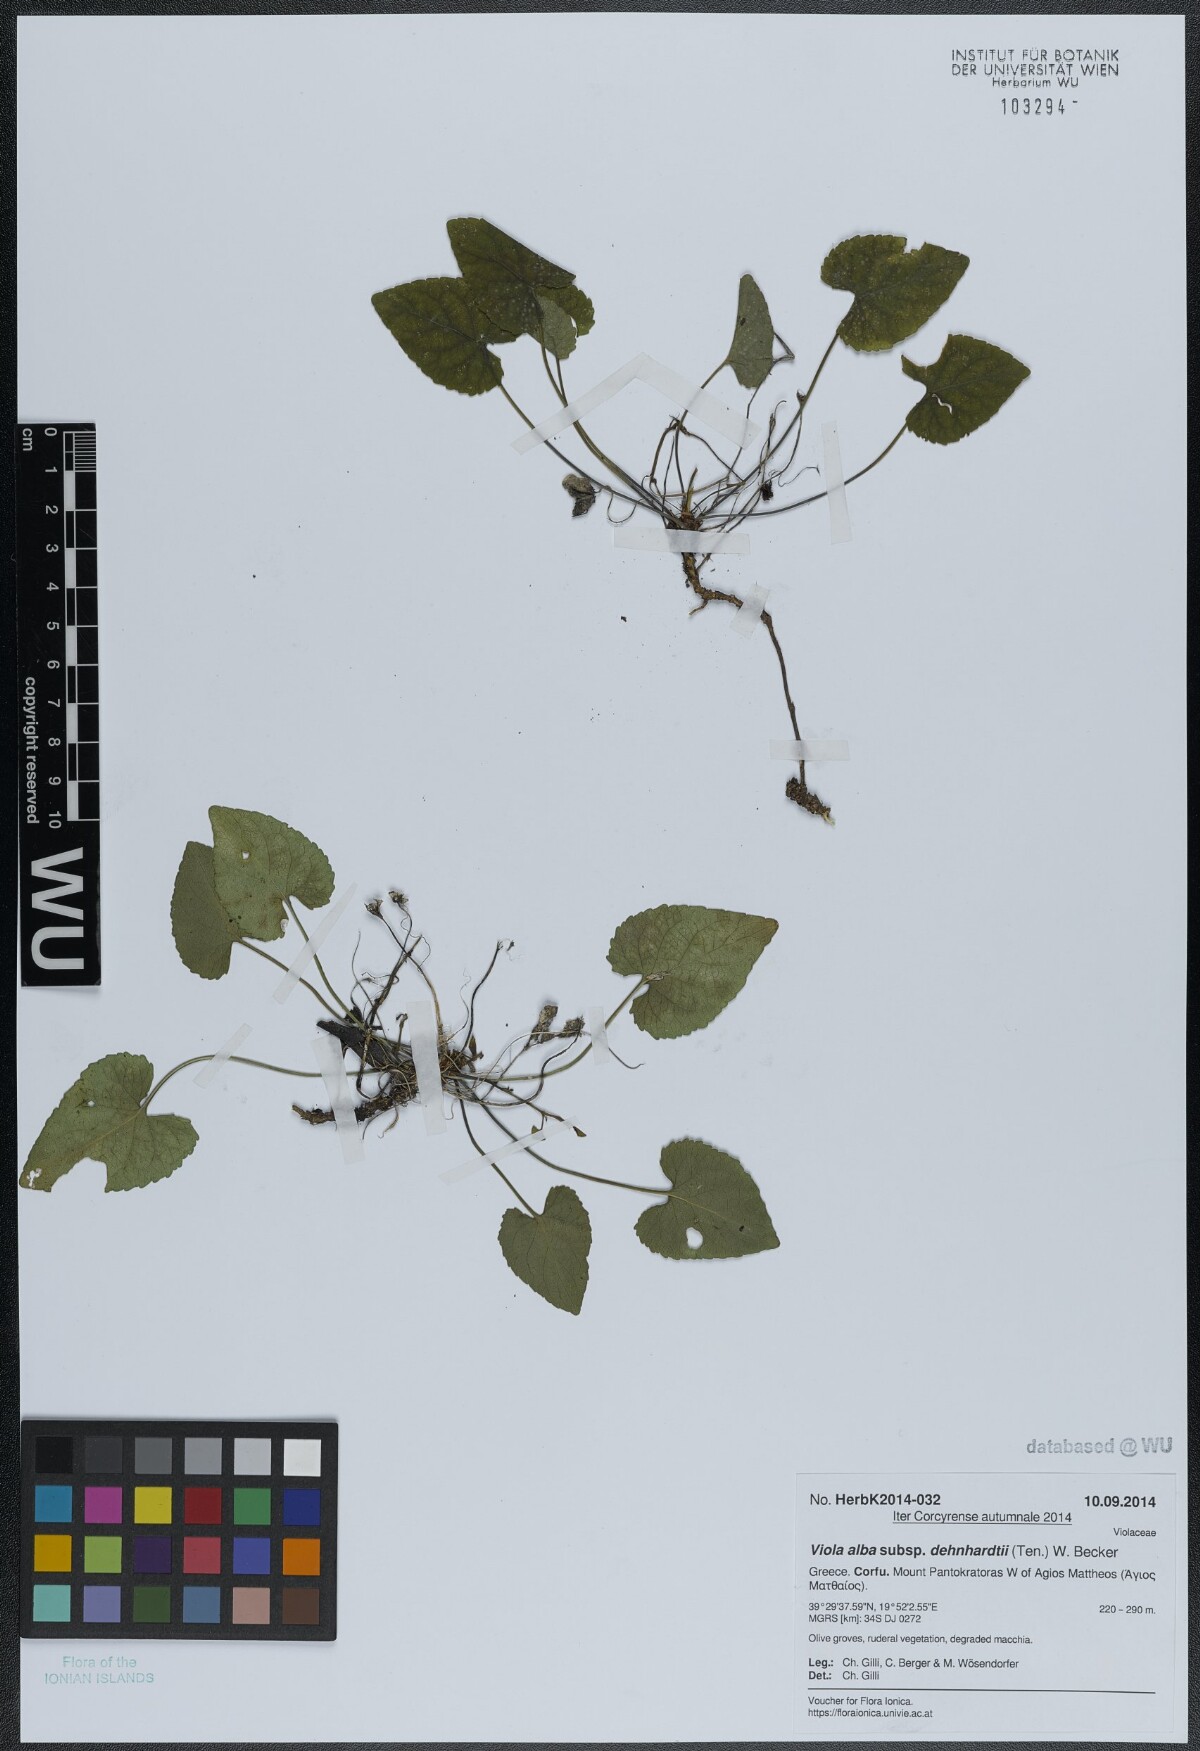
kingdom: Plantae
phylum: Tracheophyta
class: Magnoliopsida
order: Malpighiales
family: Violaceae
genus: Viola
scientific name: Viola alba
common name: White violet
